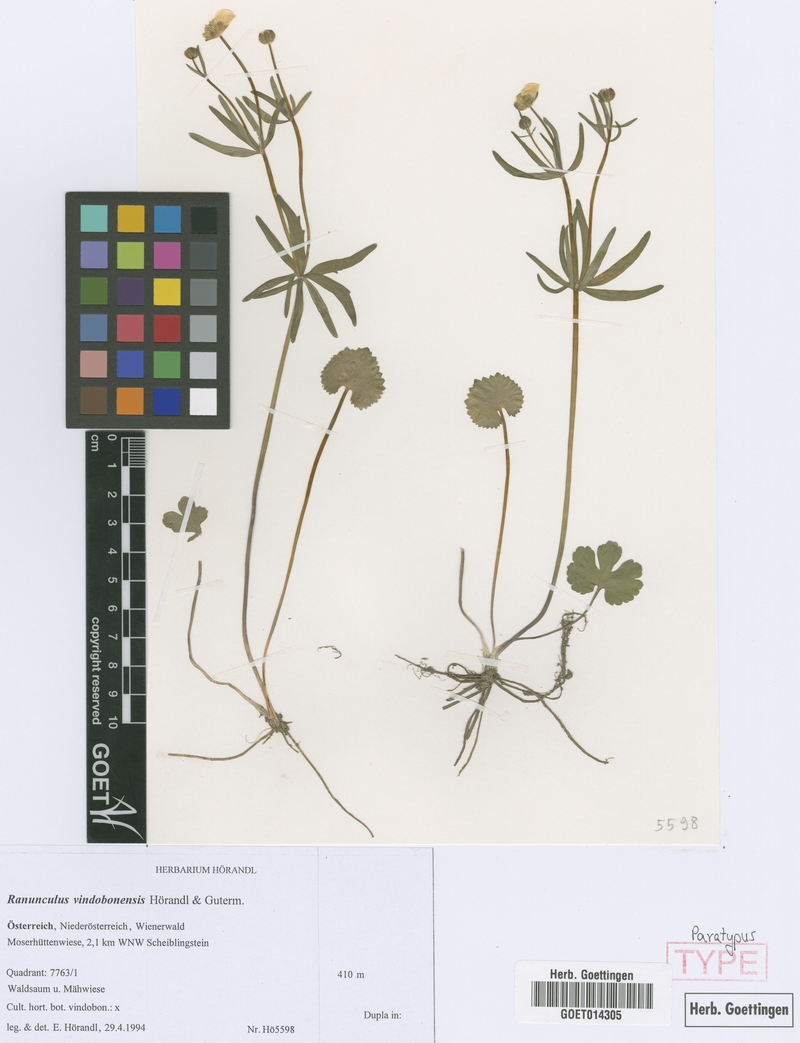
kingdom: Plantae
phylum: Tracheophyta
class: Magnoliopsida
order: Ranunculales
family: Ranunculaceae
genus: Ranunculus
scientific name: Ranunculus vindobonensis
